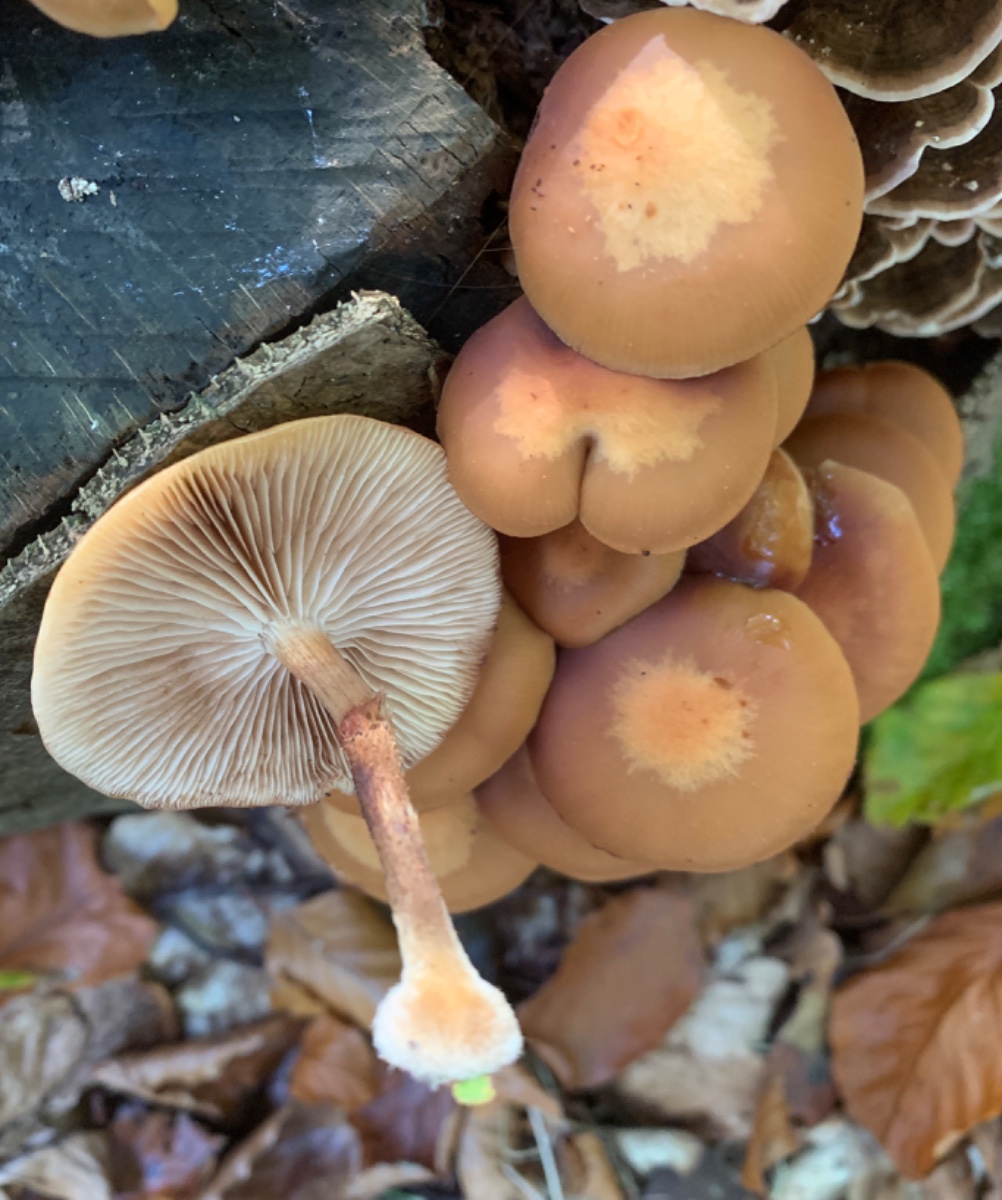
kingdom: Fungi
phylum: Basidiomycota
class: Agaricomycetes
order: Agaricales
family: Strophariaceae
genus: Kuehneromyces
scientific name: Kuehneromyces mutabilis
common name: foranderlig skælhat
